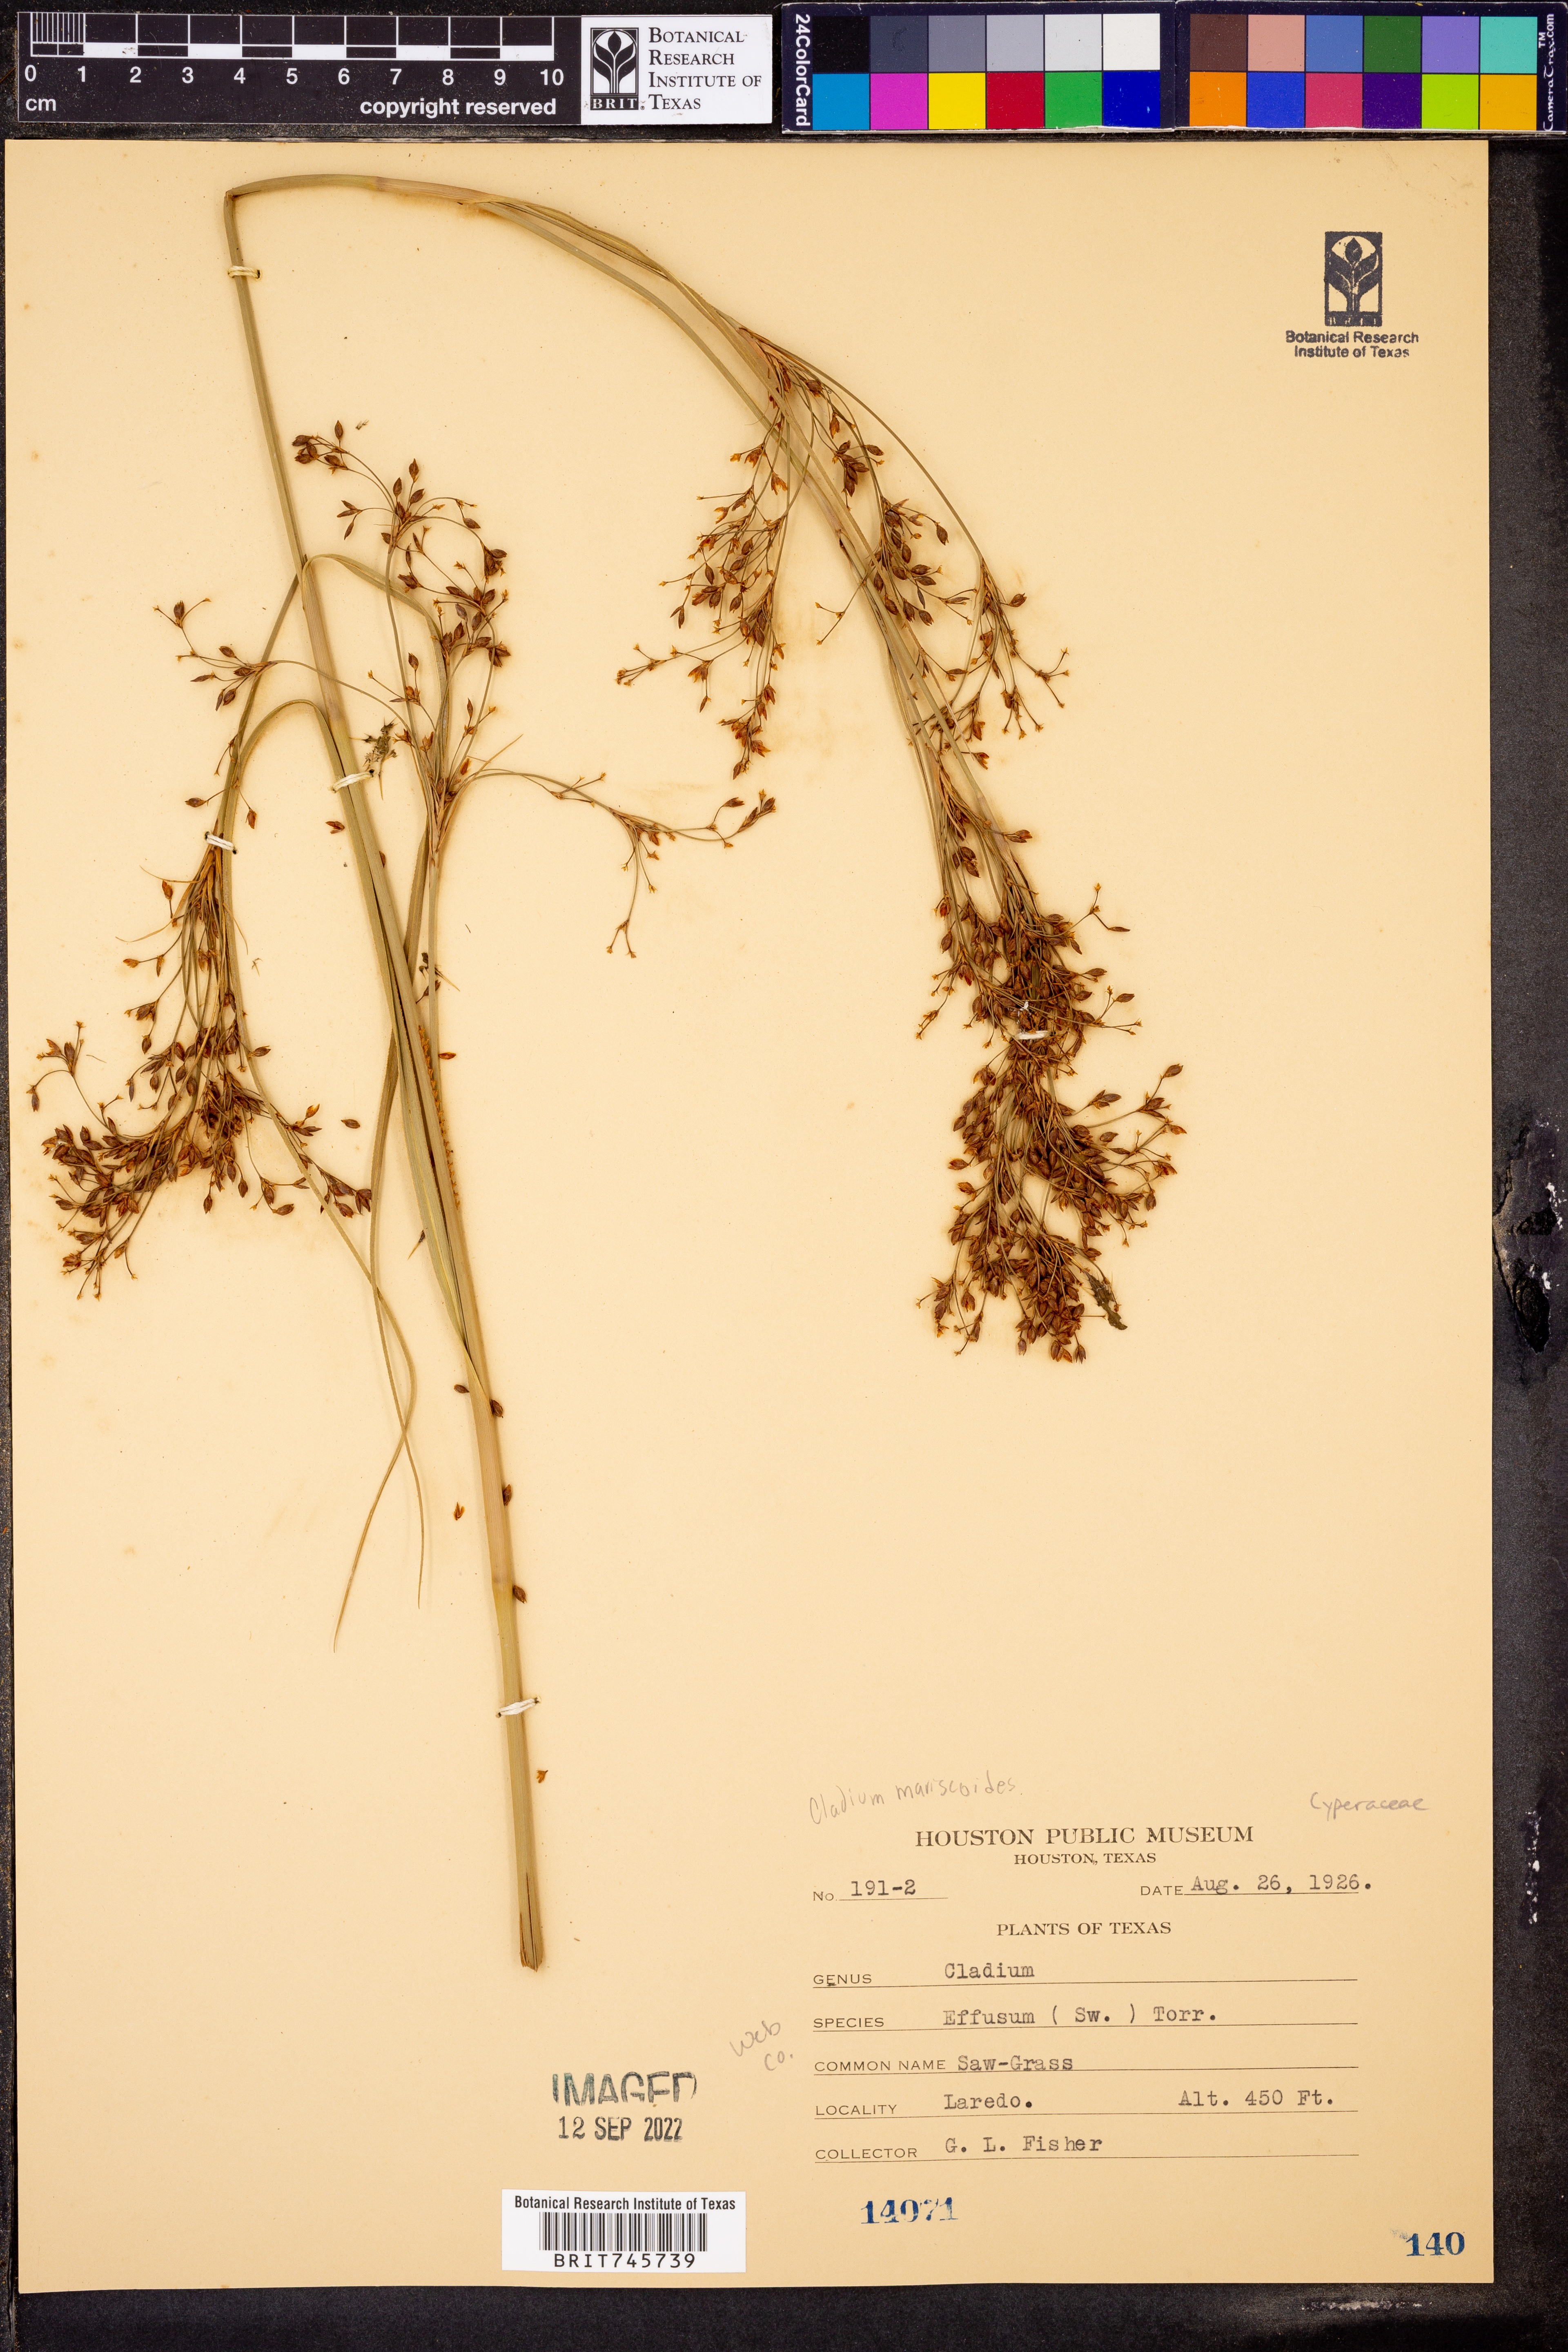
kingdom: Plantae
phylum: Tracheophyta
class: Liliopsida
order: Poales
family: Cyperaceae
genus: Cladium
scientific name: Cladium mariscoides
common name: Smooth sawgrass
